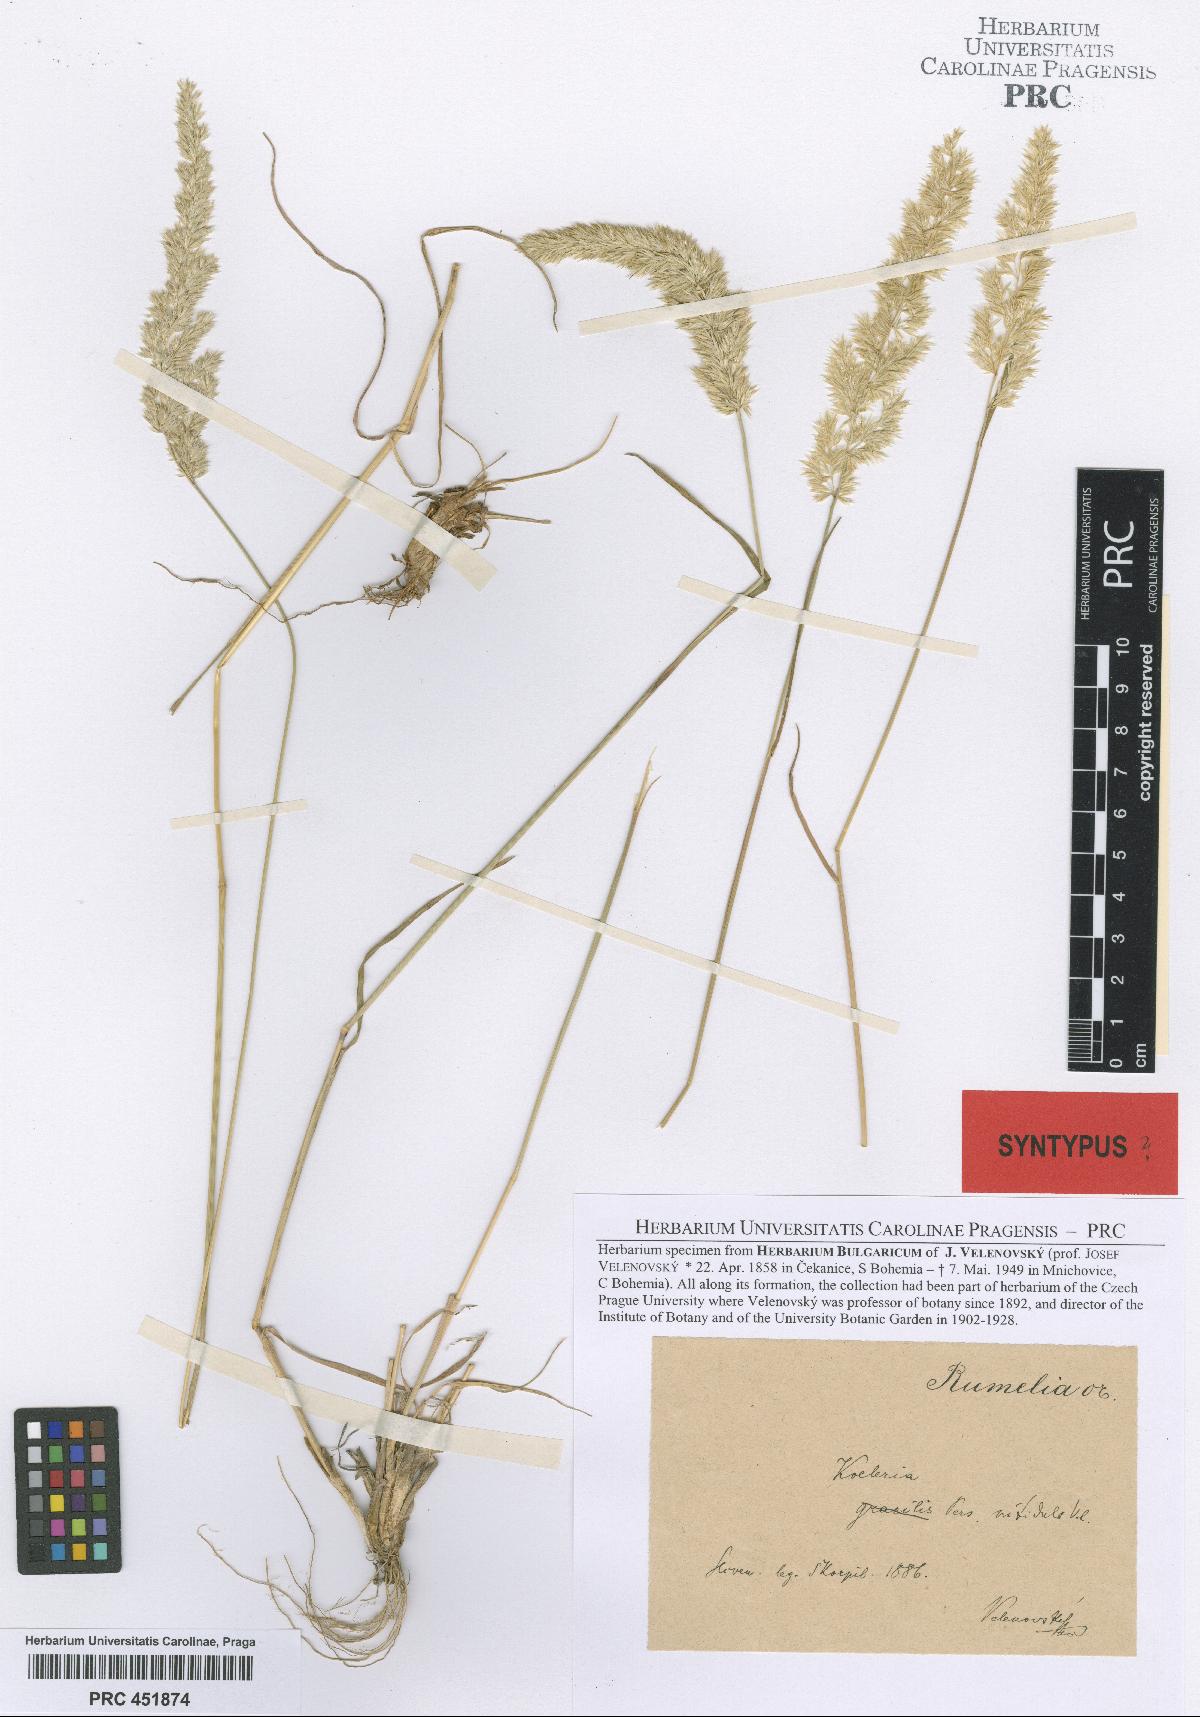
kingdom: Plantae
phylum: Tracheophyta
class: Liliopsida
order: Poales
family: Poaceae
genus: Koeleria
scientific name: Koeleria nitidula
